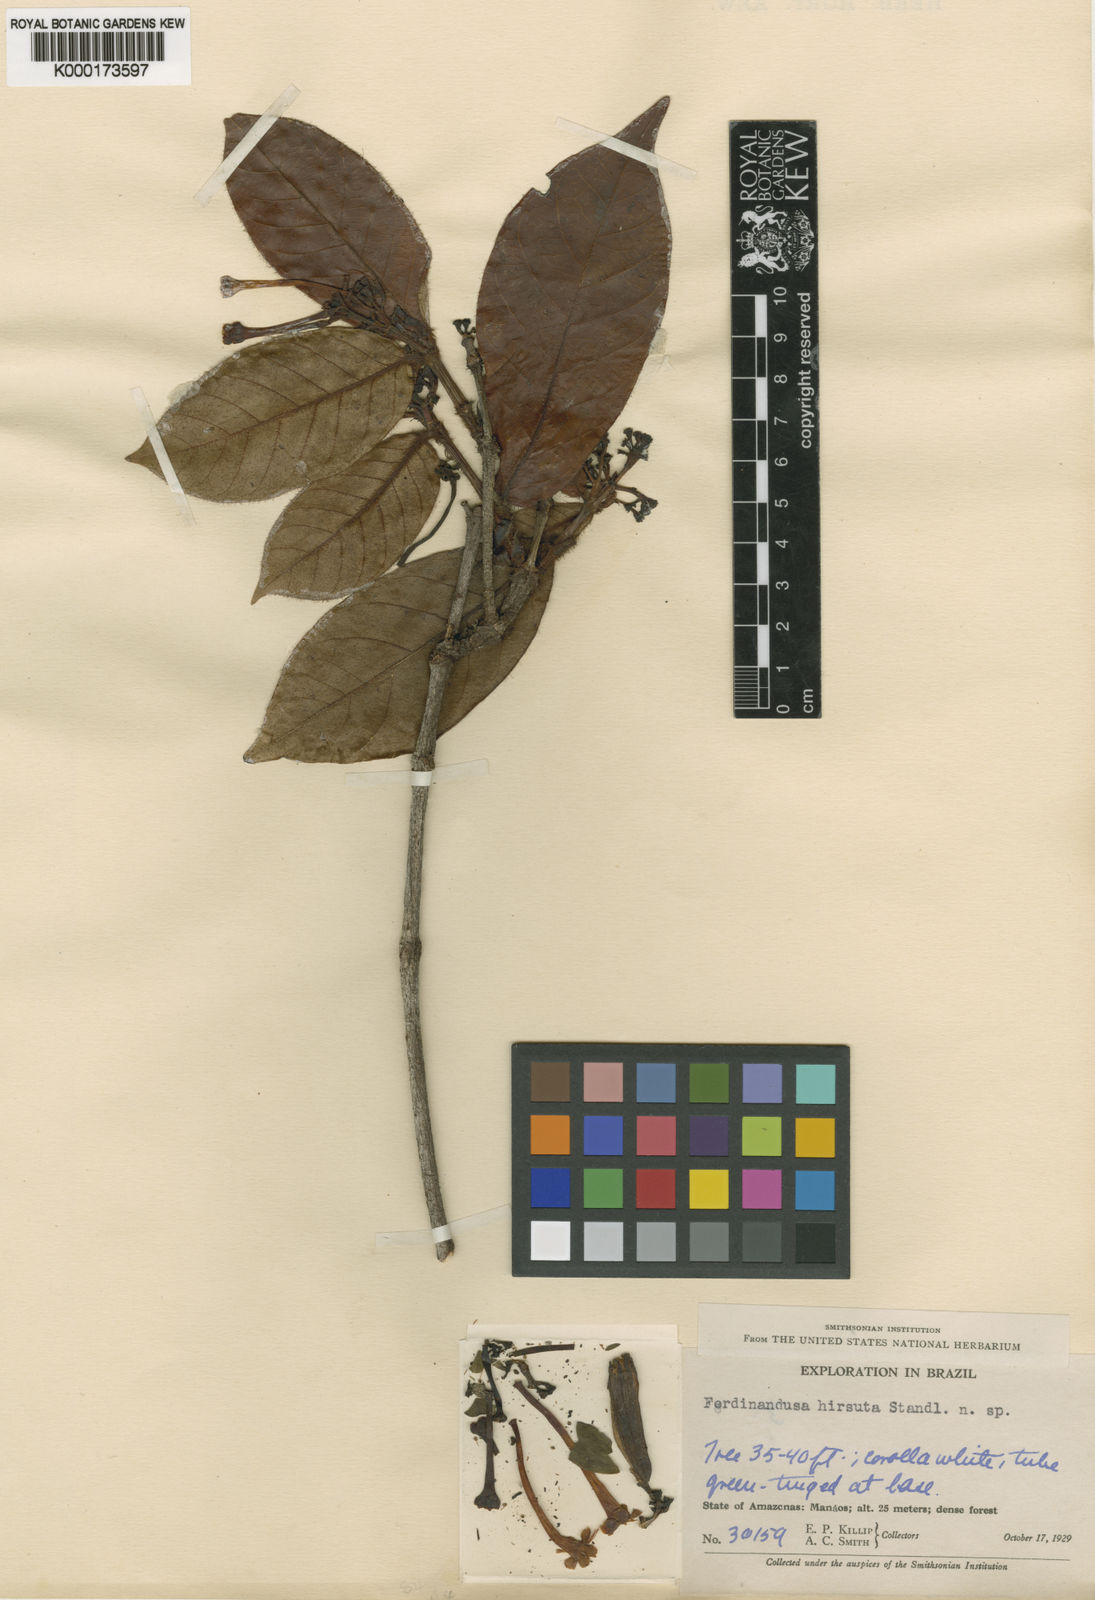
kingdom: Plantae
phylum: Tracheophyta
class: Magnoliopsida
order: Gentianales
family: Rubiaceae
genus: Ferdinandusa
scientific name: Ferdinandusa hirsuta
